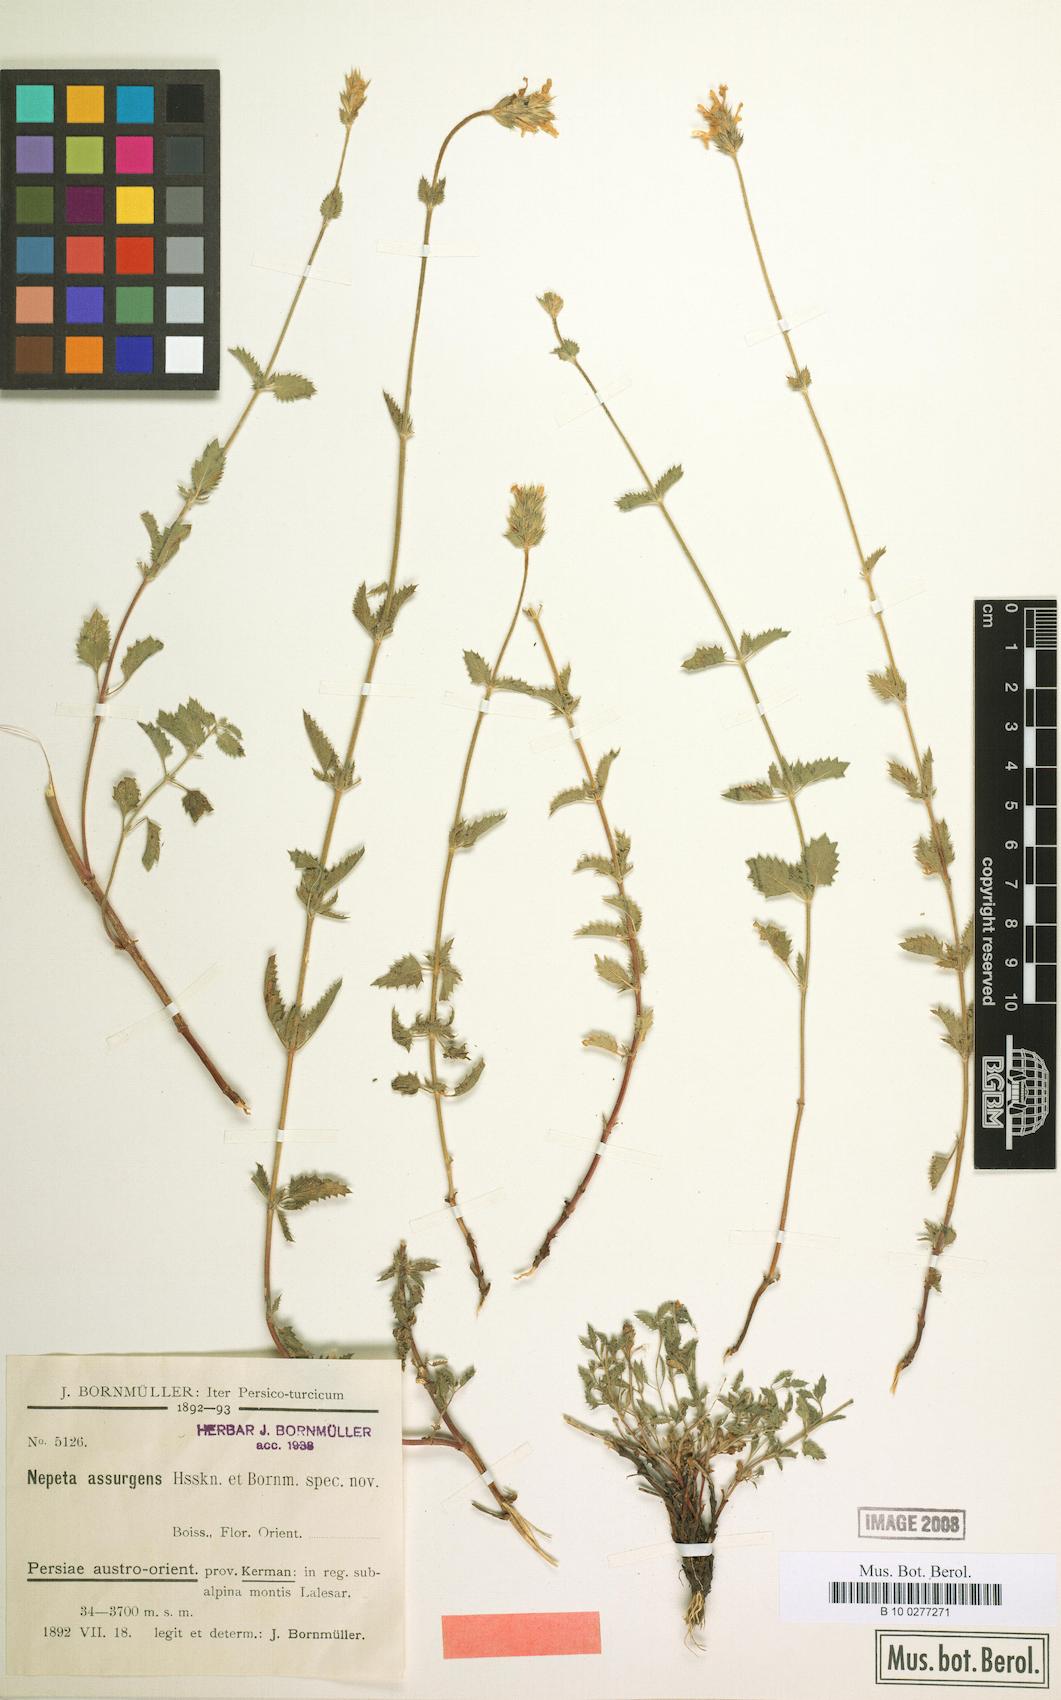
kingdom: Plantae
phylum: Tracheophyta
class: Magnoliopsida
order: Lamiales
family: Lamiaceae
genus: Nepeta
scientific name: Nepeta assurgens
